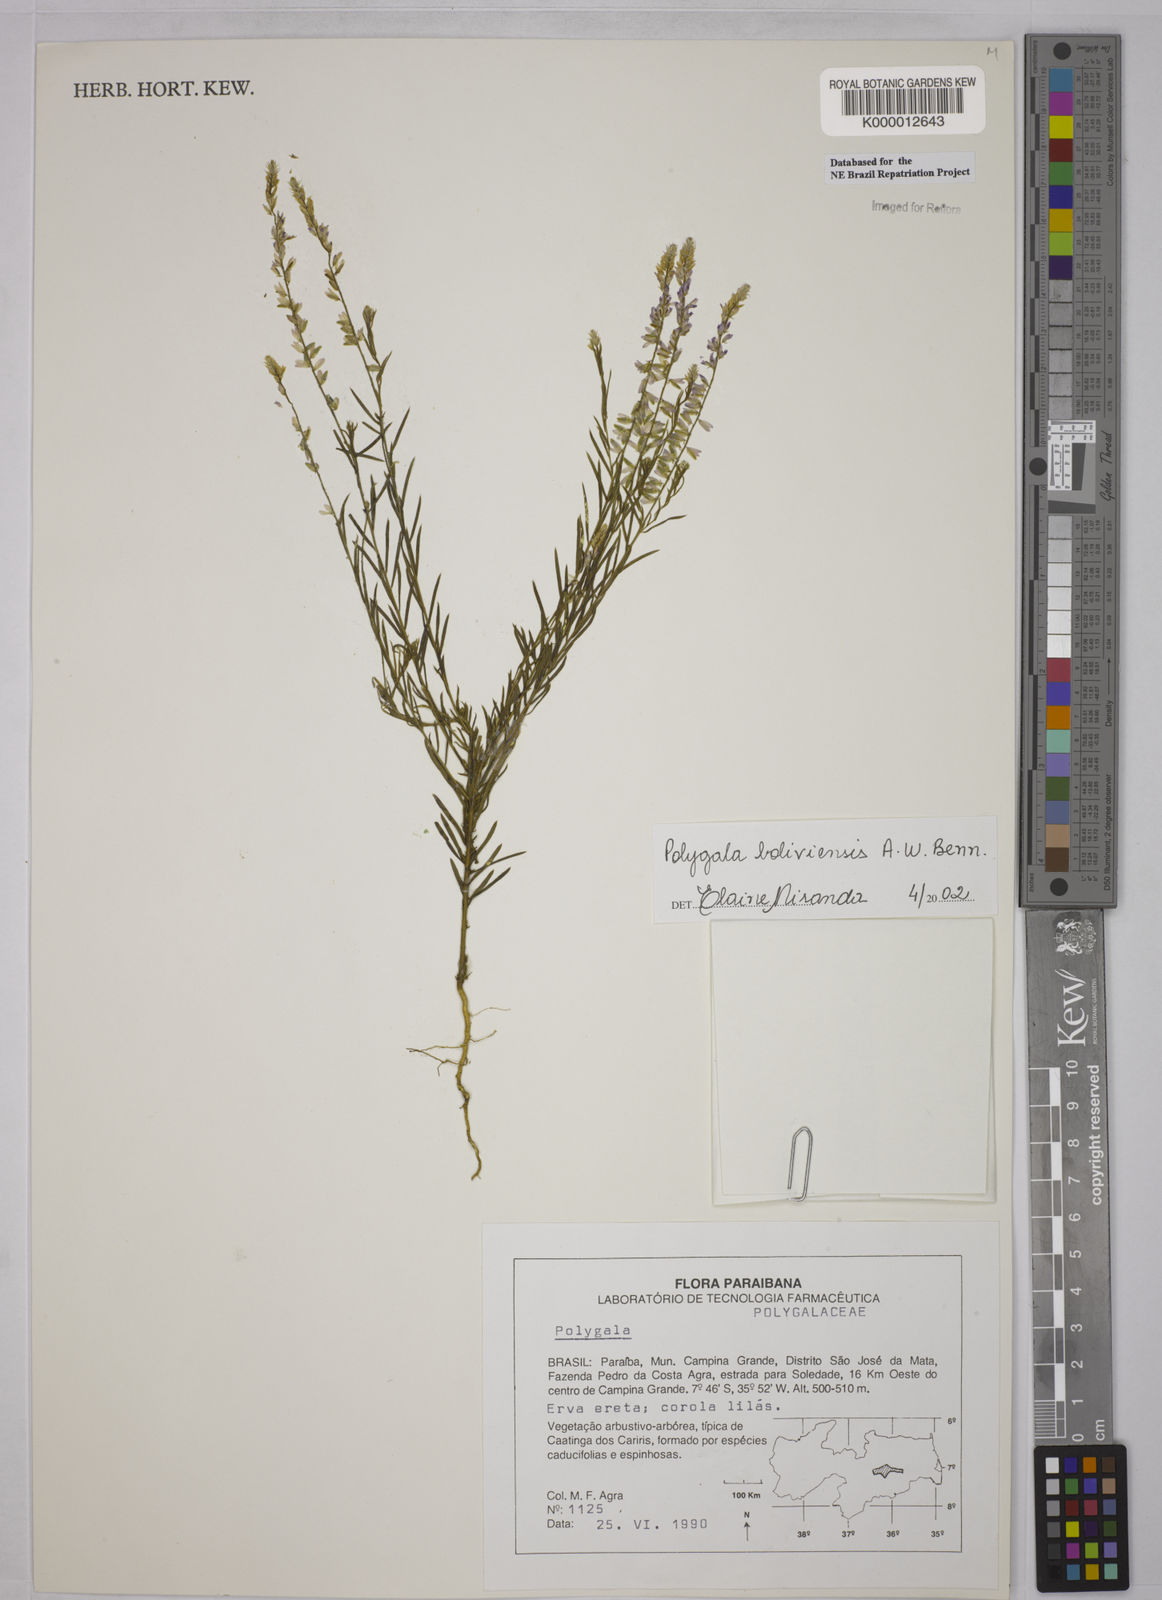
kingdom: Plantae
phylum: Tracheophyta
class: Magnoliopsida
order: Fabales
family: Polygalaceae
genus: Polygala
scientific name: Polygala boliviensis
